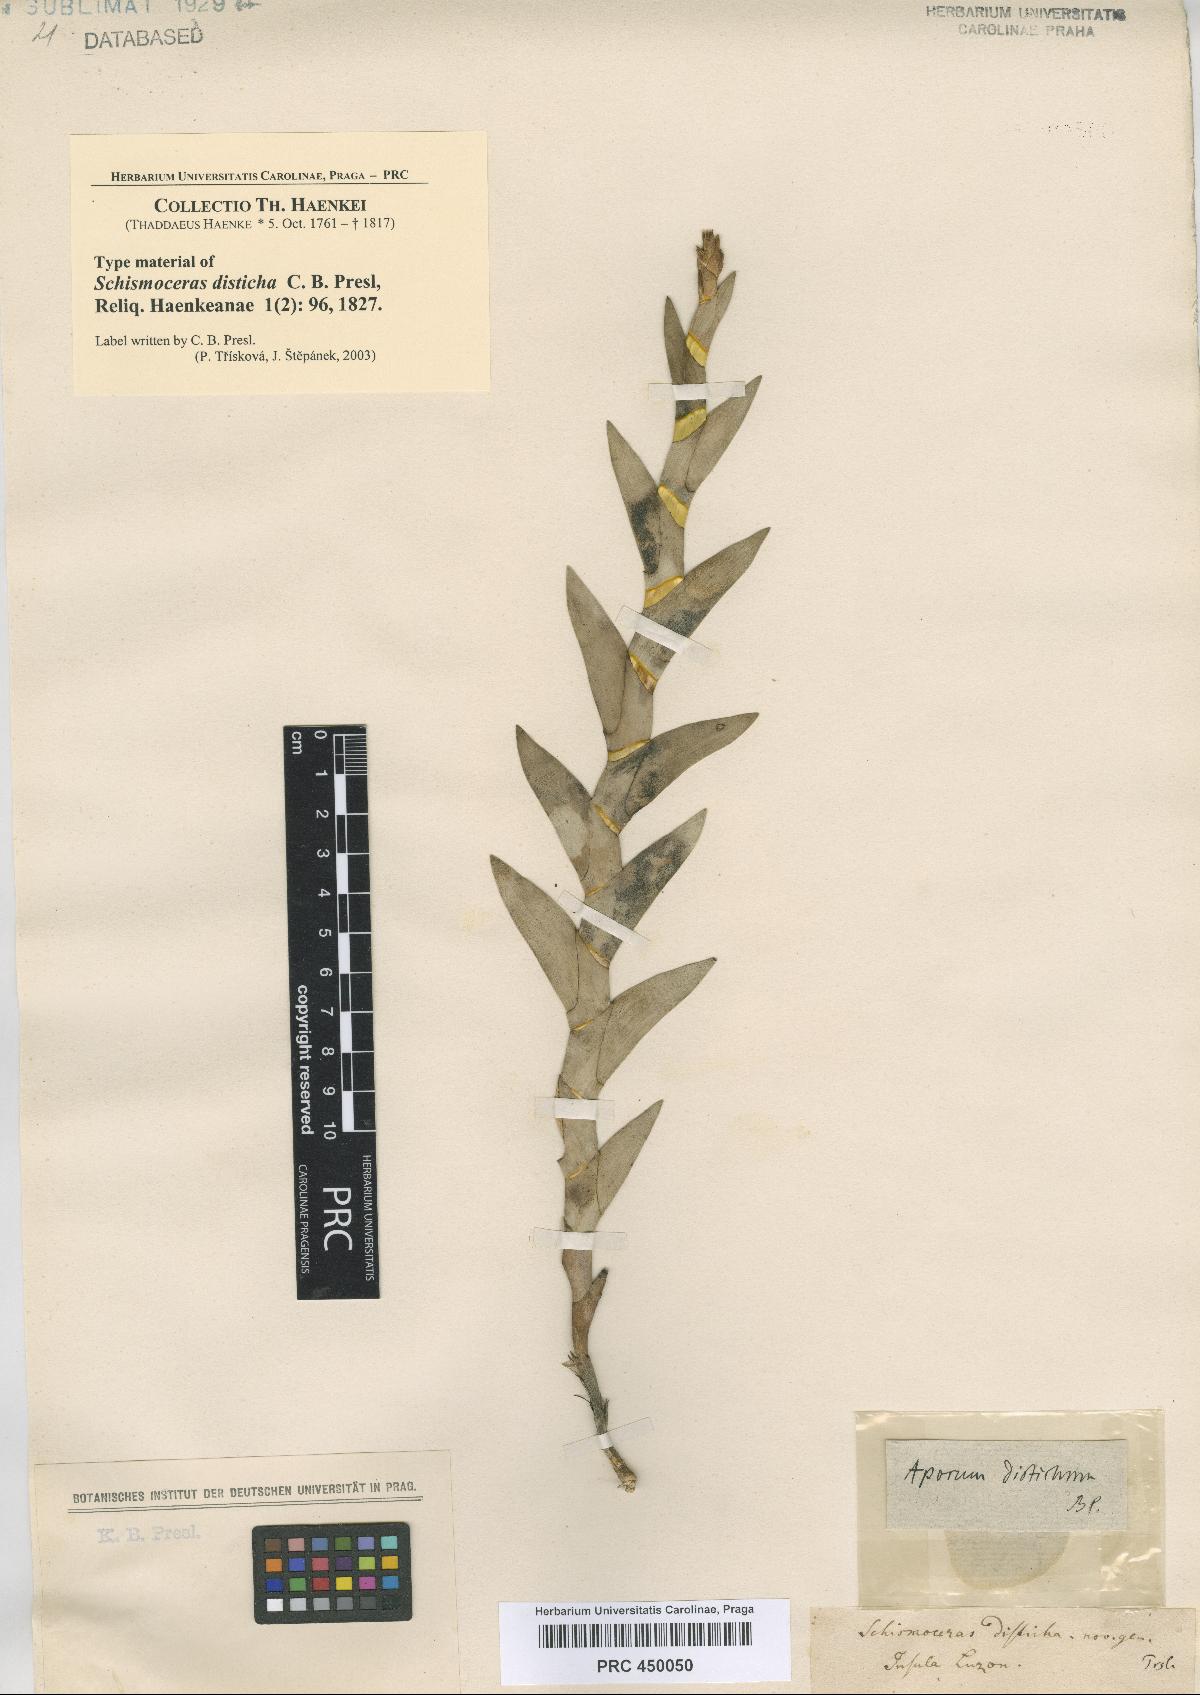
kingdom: Plantae
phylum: Tracheophyta
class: Liliopsida
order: Asparagales
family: Orchidaceae
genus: Dendrobium
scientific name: Dendrobium distichum
